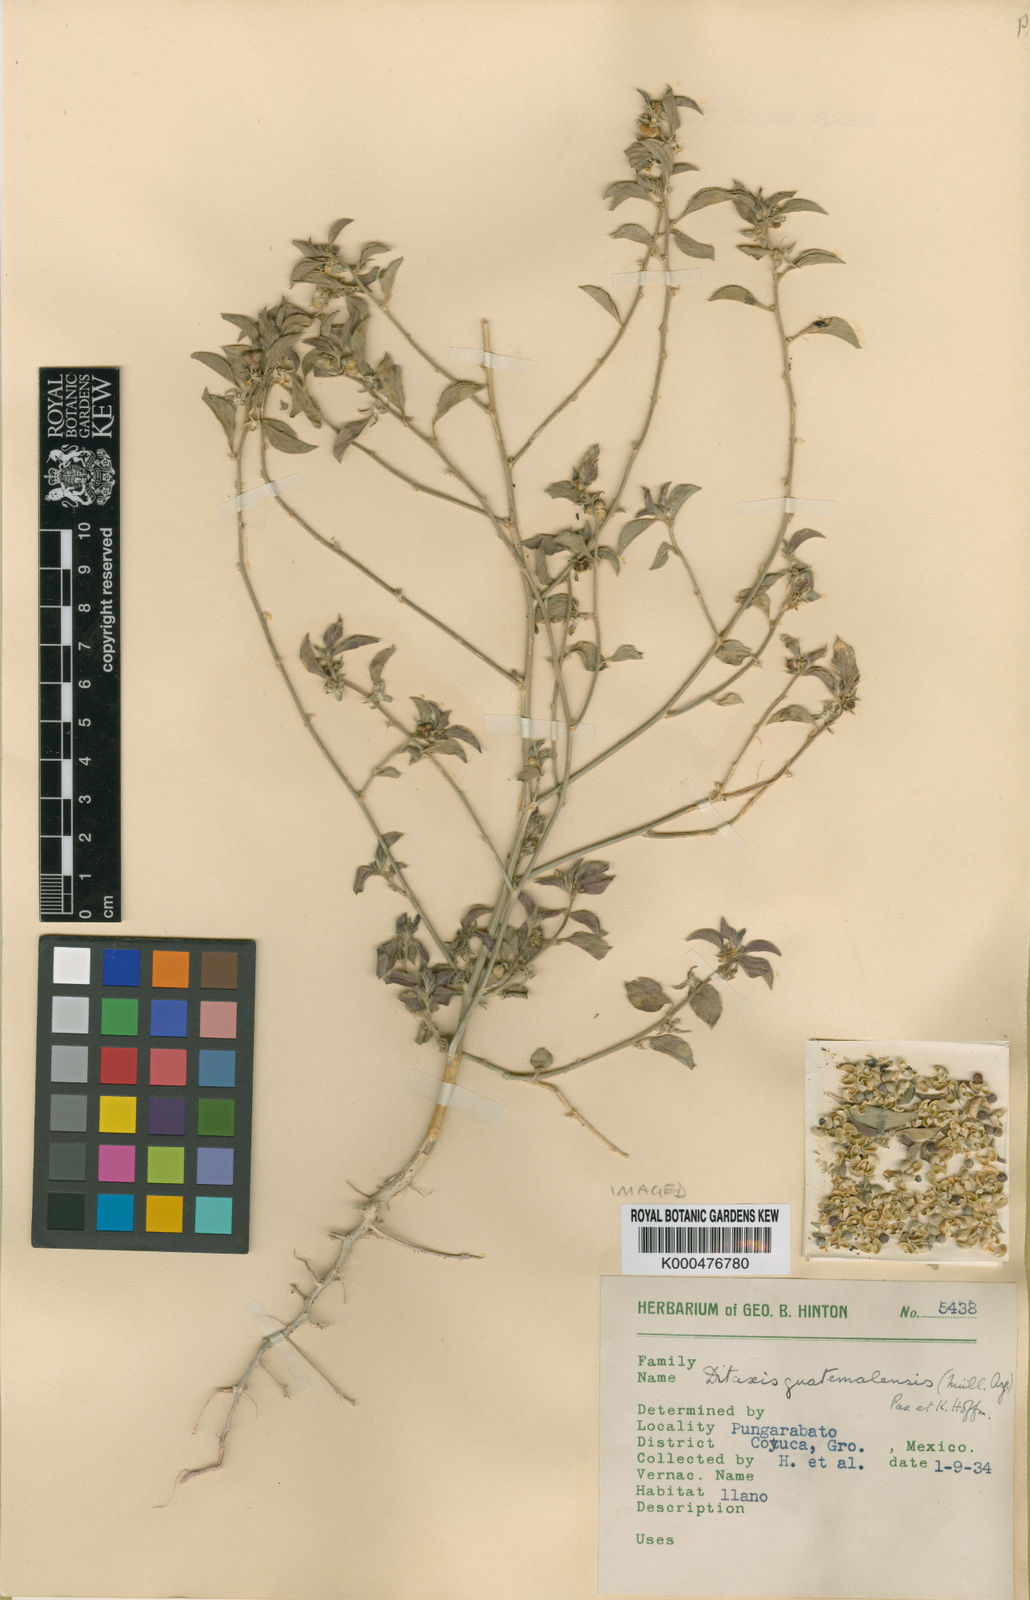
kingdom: Plantae
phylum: Tracheophyta
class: Magnoliopsida
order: Malpighiales
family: Euphorbiaceae
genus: Ditaxis
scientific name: Ditaxis
